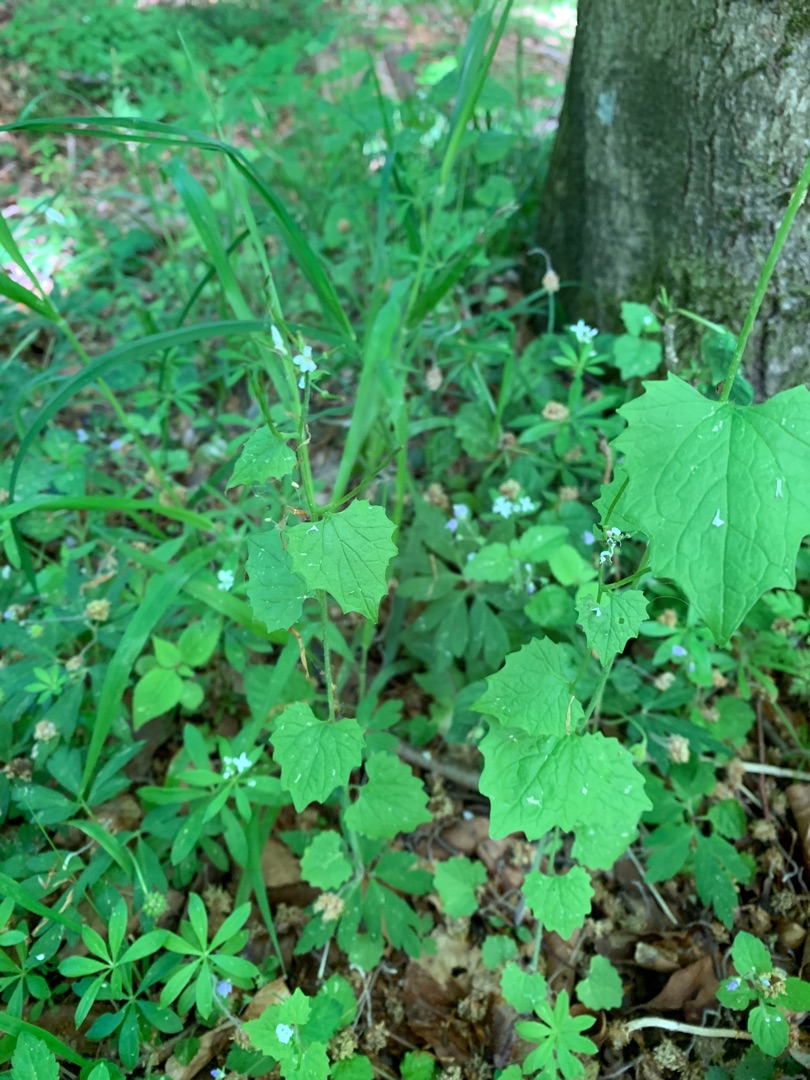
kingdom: Plantae
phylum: Tracheophyta
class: Magnoliopsida
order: Brassicales
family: Brassicaceae
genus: Alliaria
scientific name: Alliaria petiolata
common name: Løgkarse
